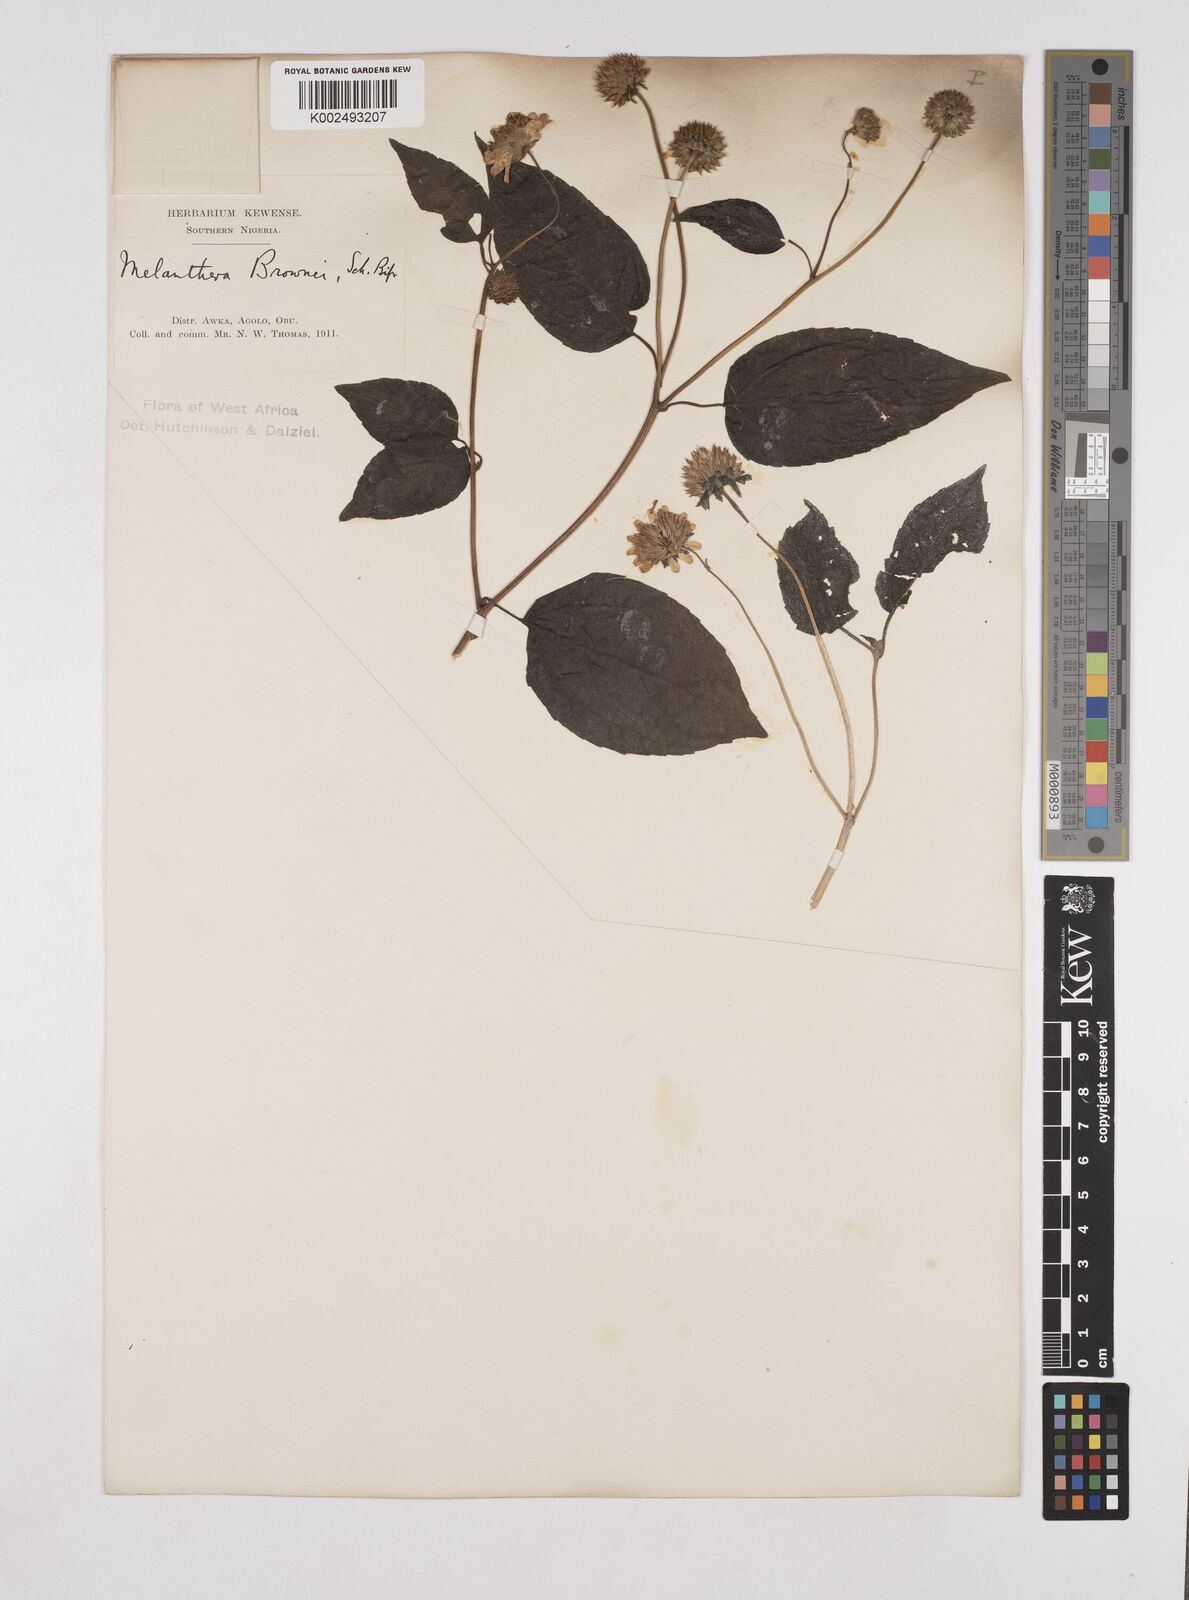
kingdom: Plantae
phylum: Tracheophyta
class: Magnoliopsida
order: Asterales
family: Asteraceae
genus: Lipotriche
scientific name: Lipotriche scandens
